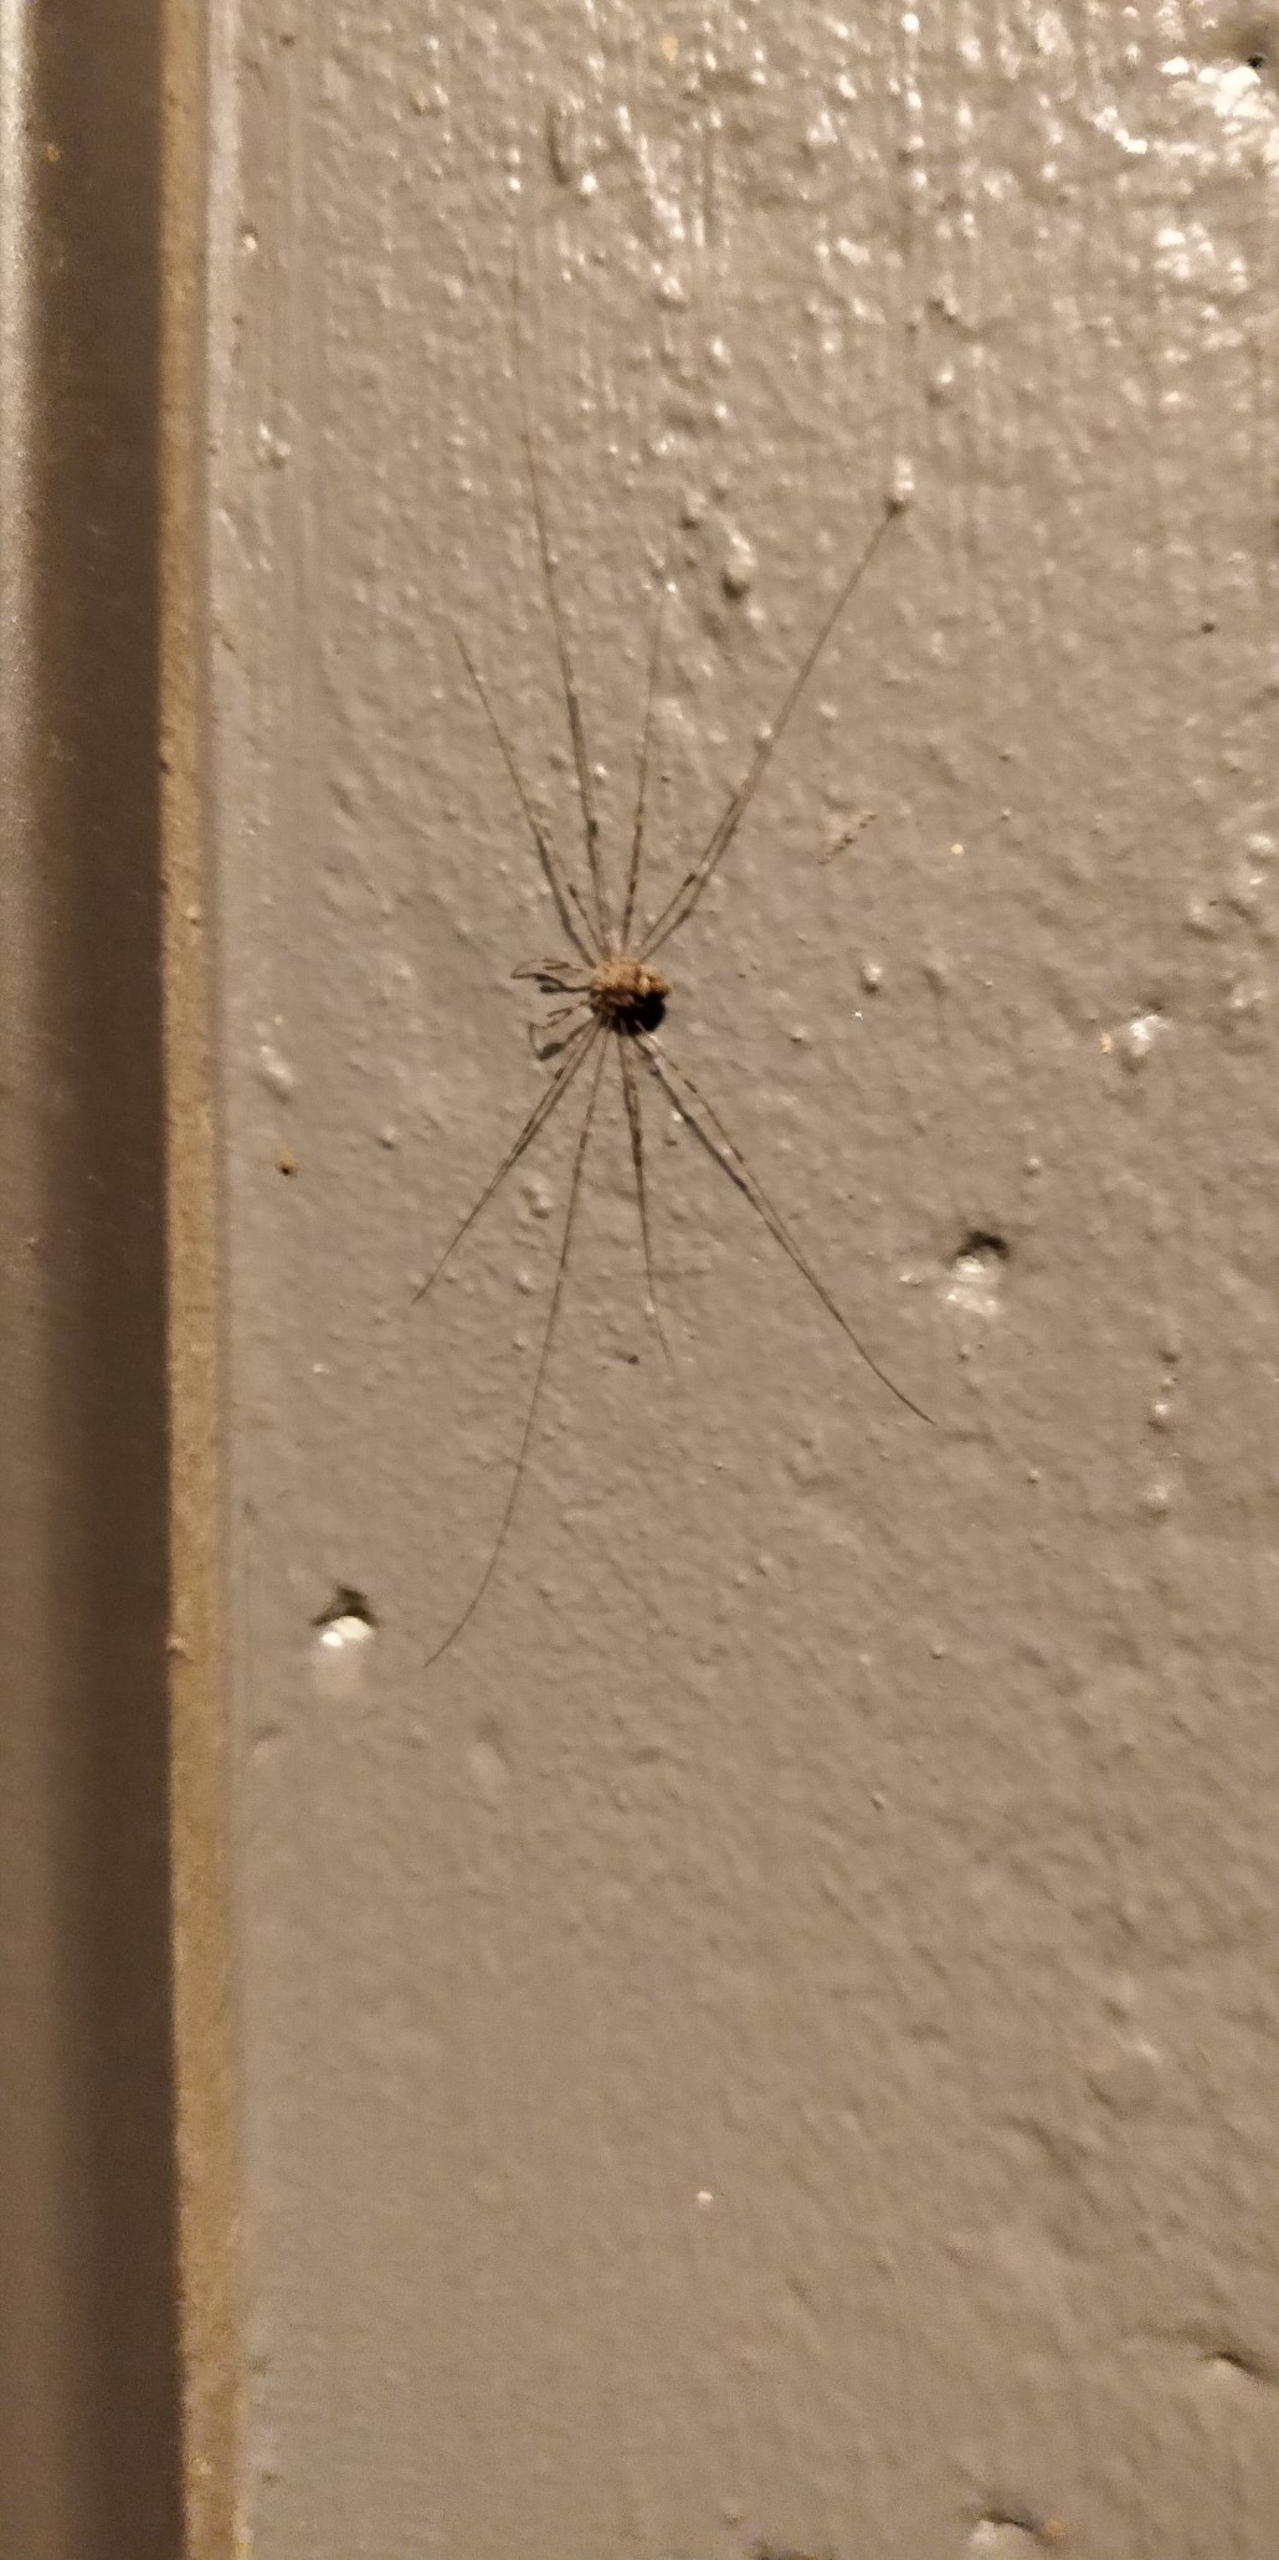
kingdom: Animalia
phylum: Arthropoda
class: Arachnida
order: Opiliones
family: Phalangiidae
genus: Dicranopalpus
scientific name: Dicranopalpus ramosus
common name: Gaffelmejer
